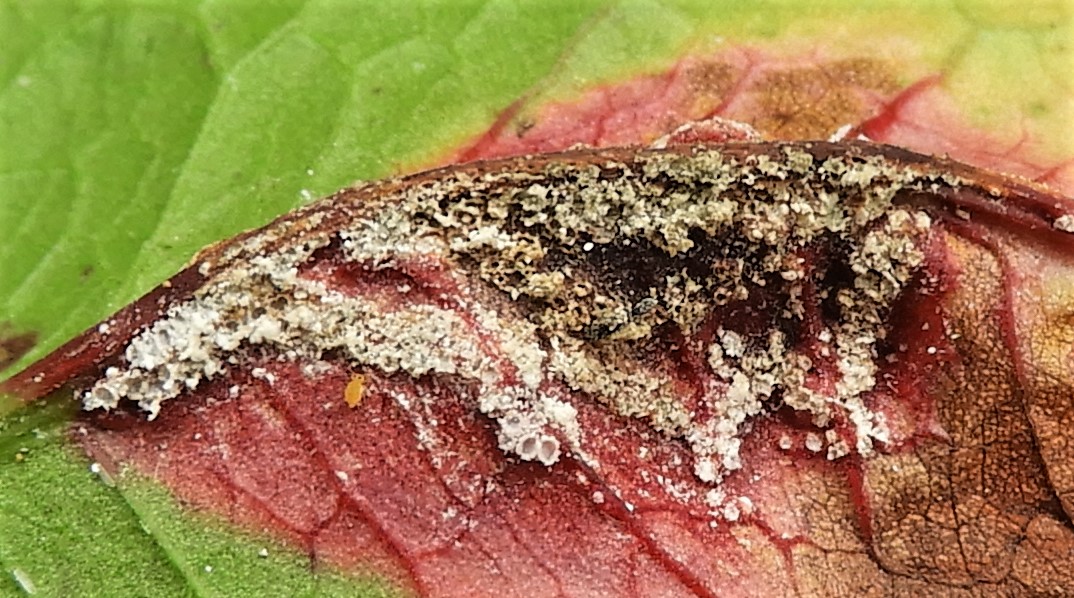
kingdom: Fungi
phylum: Basidiomycota
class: Pucciniomycetes
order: Pucciniales
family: Pucciniaceae
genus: Puccinia
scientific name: Puccinia phragmitis
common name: tagrør-tvecellerust
